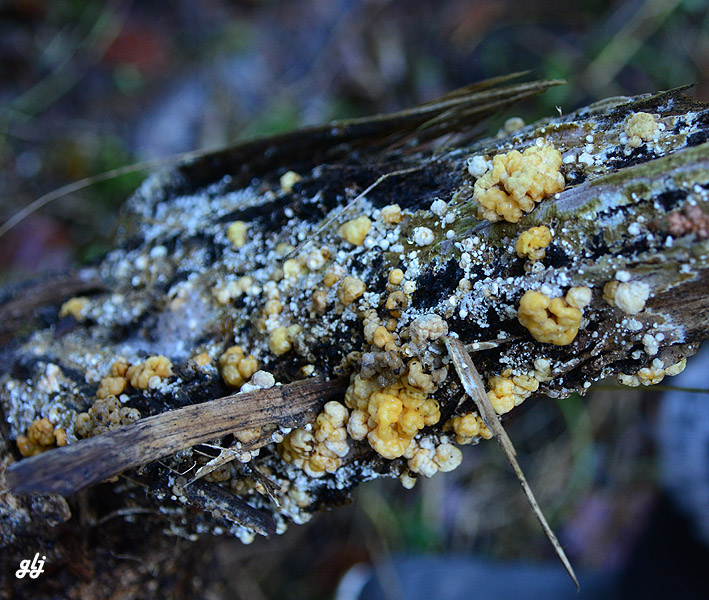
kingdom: Fungi
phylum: Ascomycota
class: Sordariomycetes
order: Xylariales
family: Hypoxylaceae
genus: Nodulisporium
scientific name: Nodulisporium cecidiogenes
